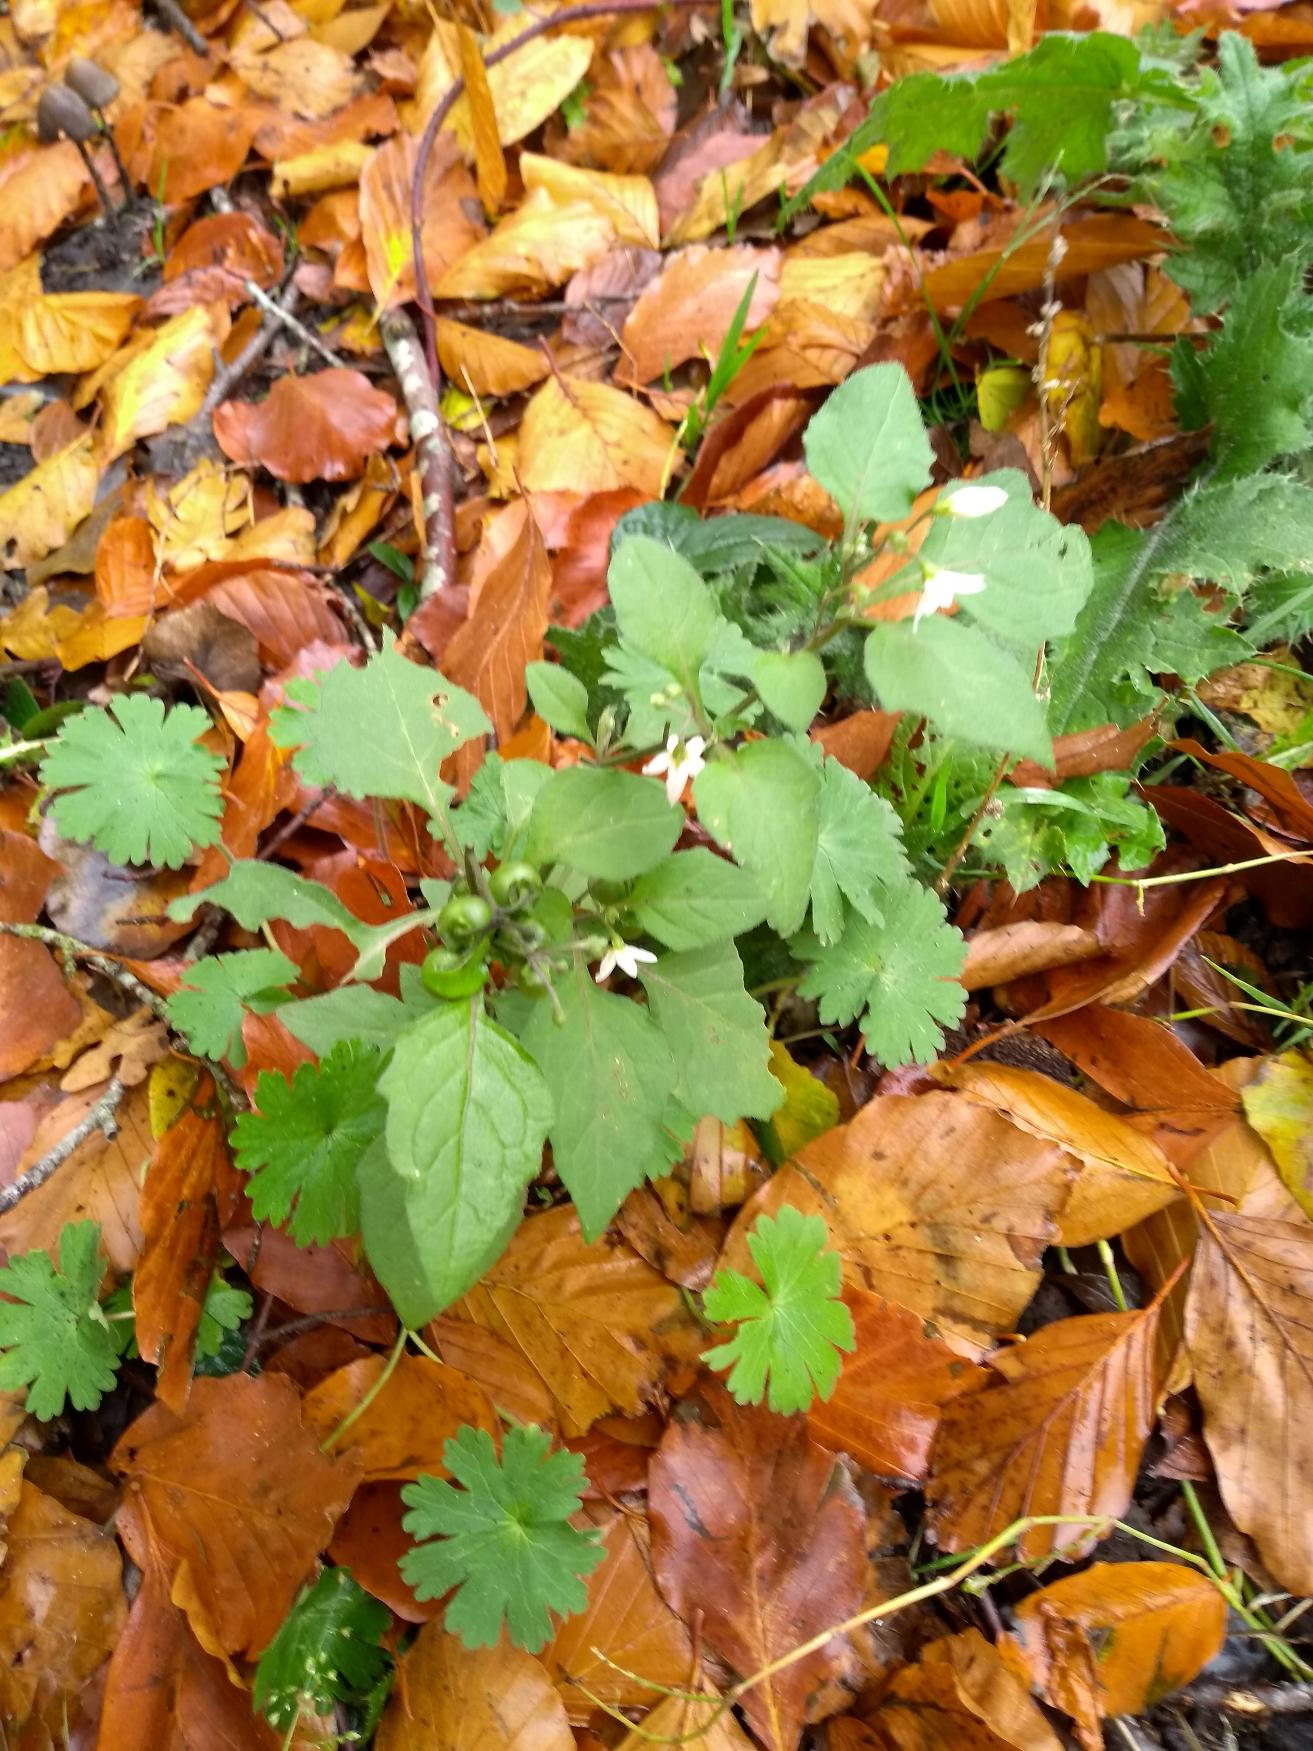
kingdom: Plantae
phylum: Tracheophyta
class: Magnoliopsida
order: Solanales
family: Solanaceae
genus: Solanum
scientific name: Solanum nigrum
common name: Sort natskygge
